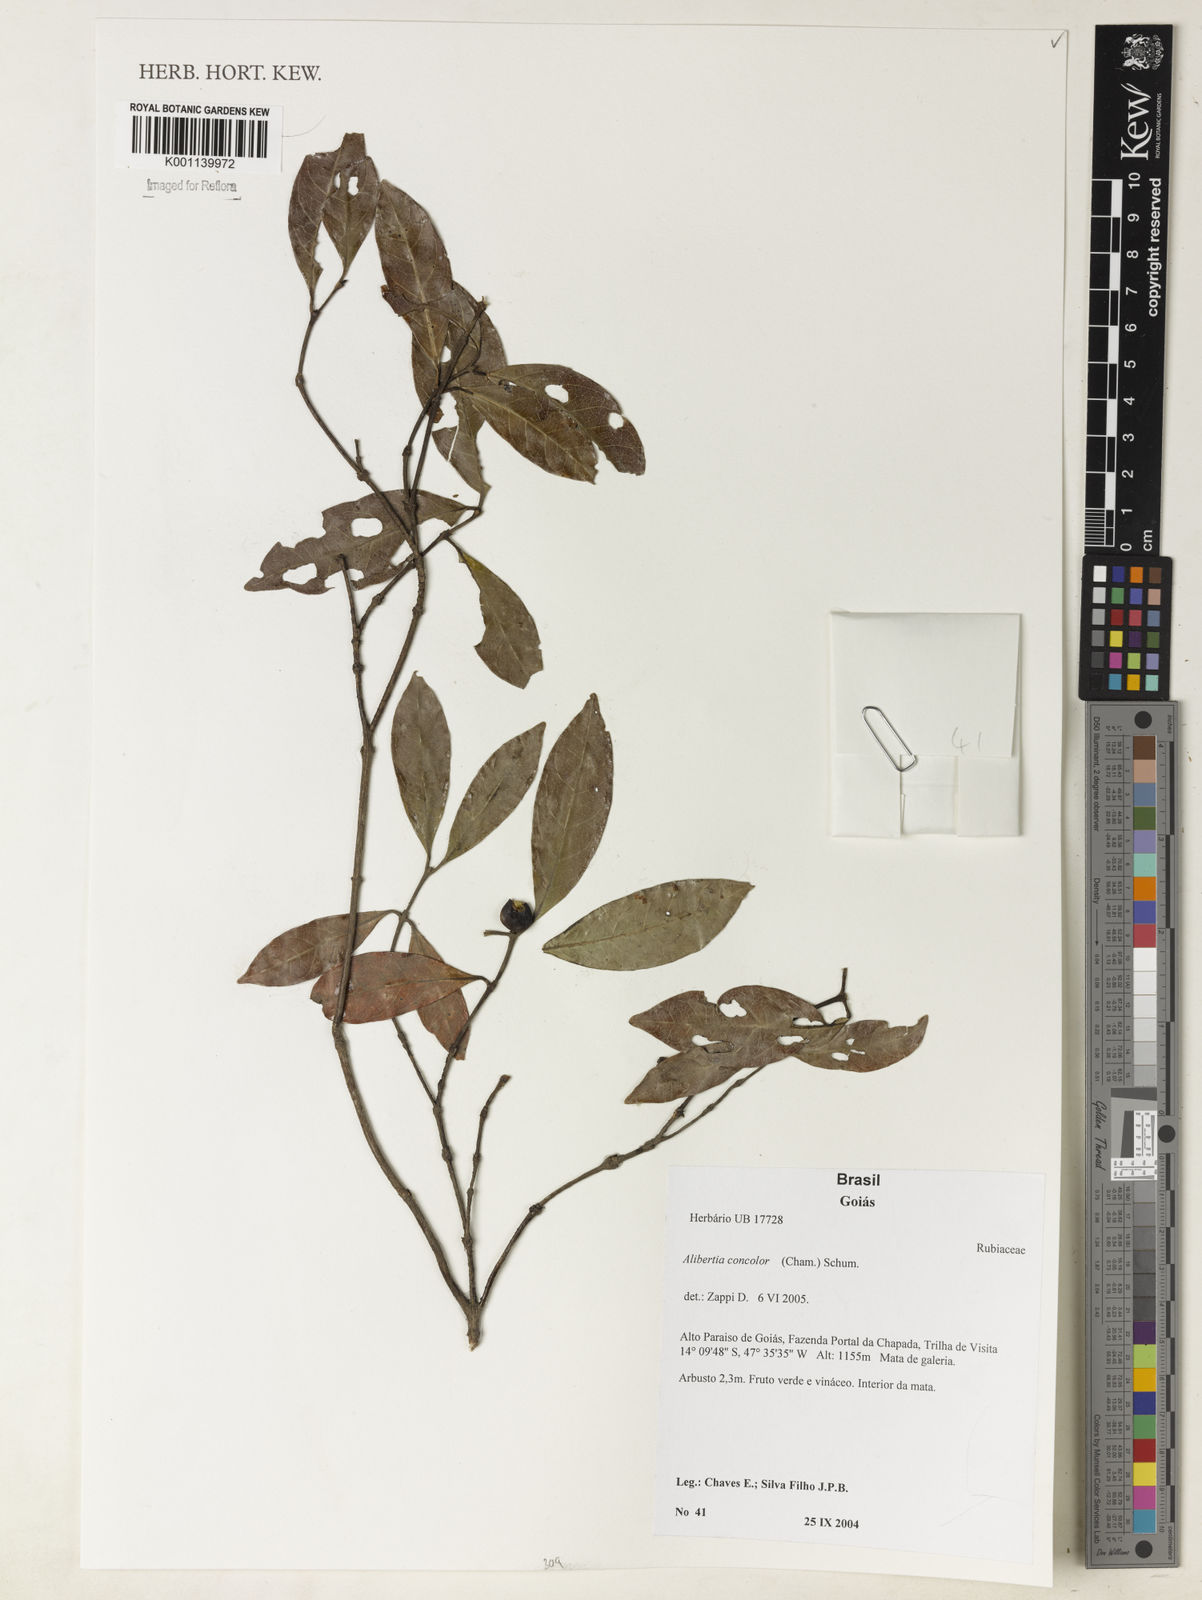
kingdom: Plantae
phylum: Tracheophyta
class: Magnoliopsida
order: Gentianales
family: Rubiaceae
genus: Cordiera
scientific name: Cordiera concolor
